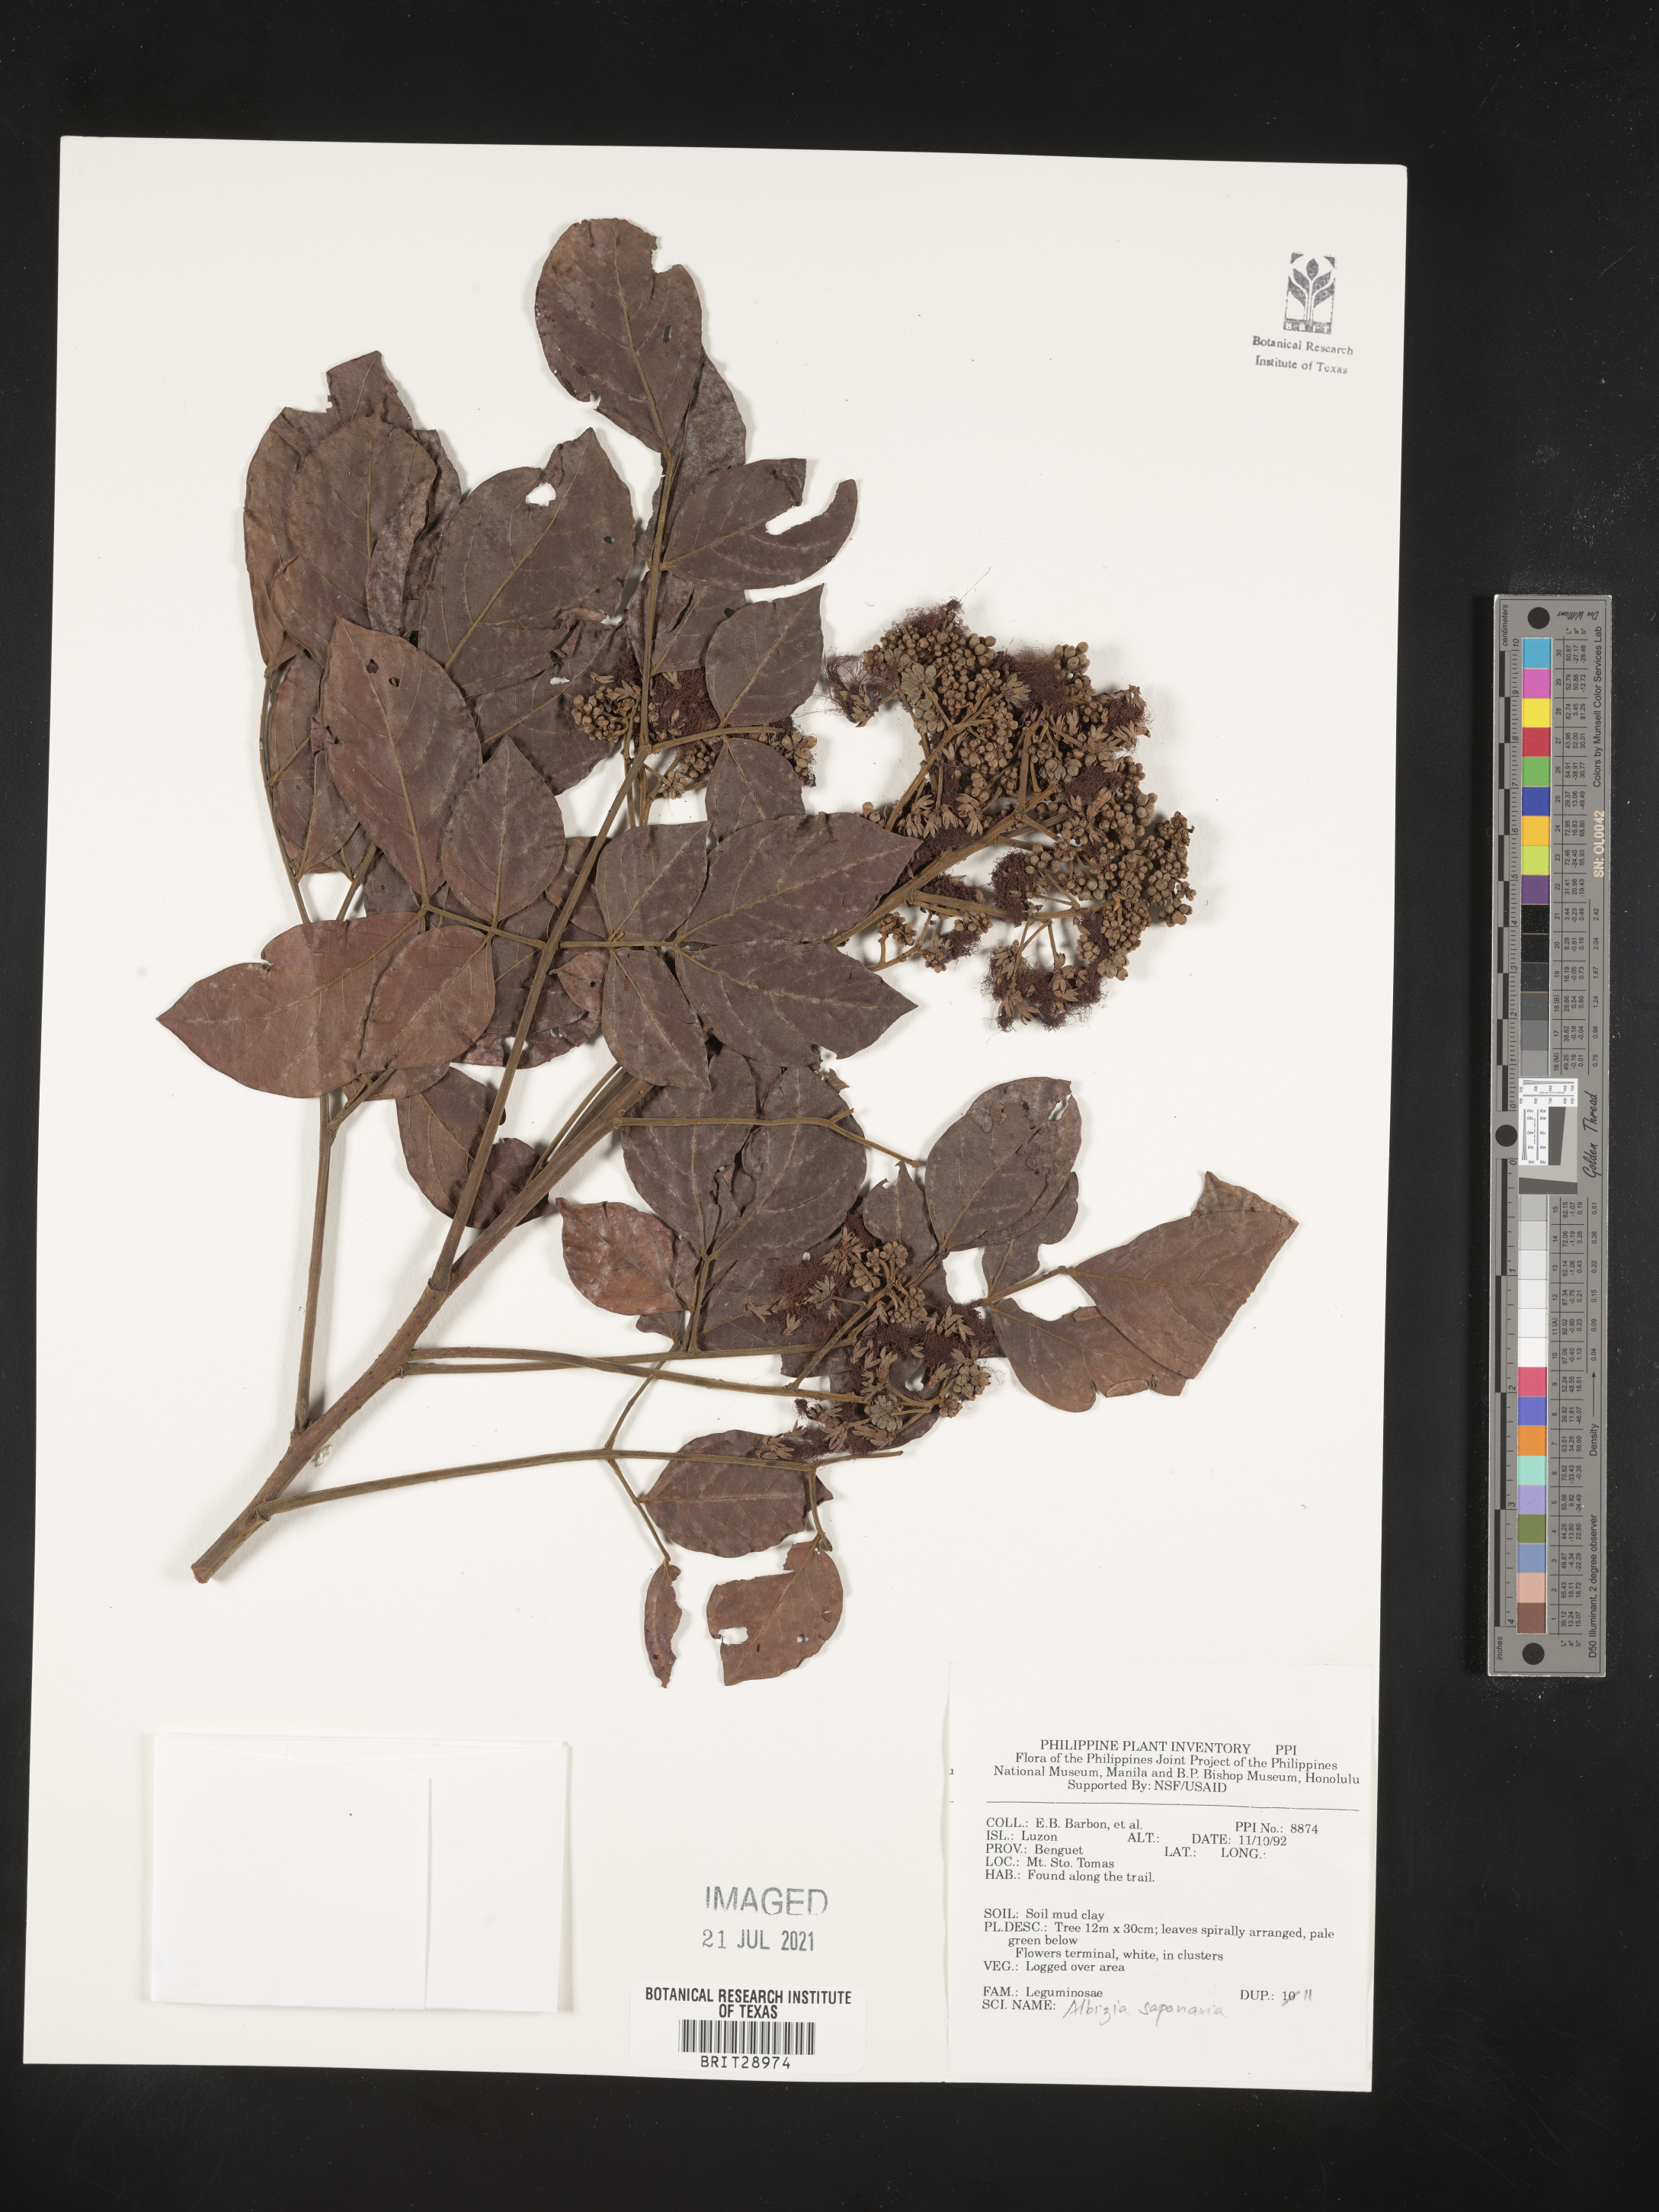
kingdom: Plantae
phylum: Tracheophyta
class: Magnoliopsida
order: Fabales
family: Fabaceae
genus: Albizia
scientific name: Albizia saponaria
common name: Whiteflower albizia
